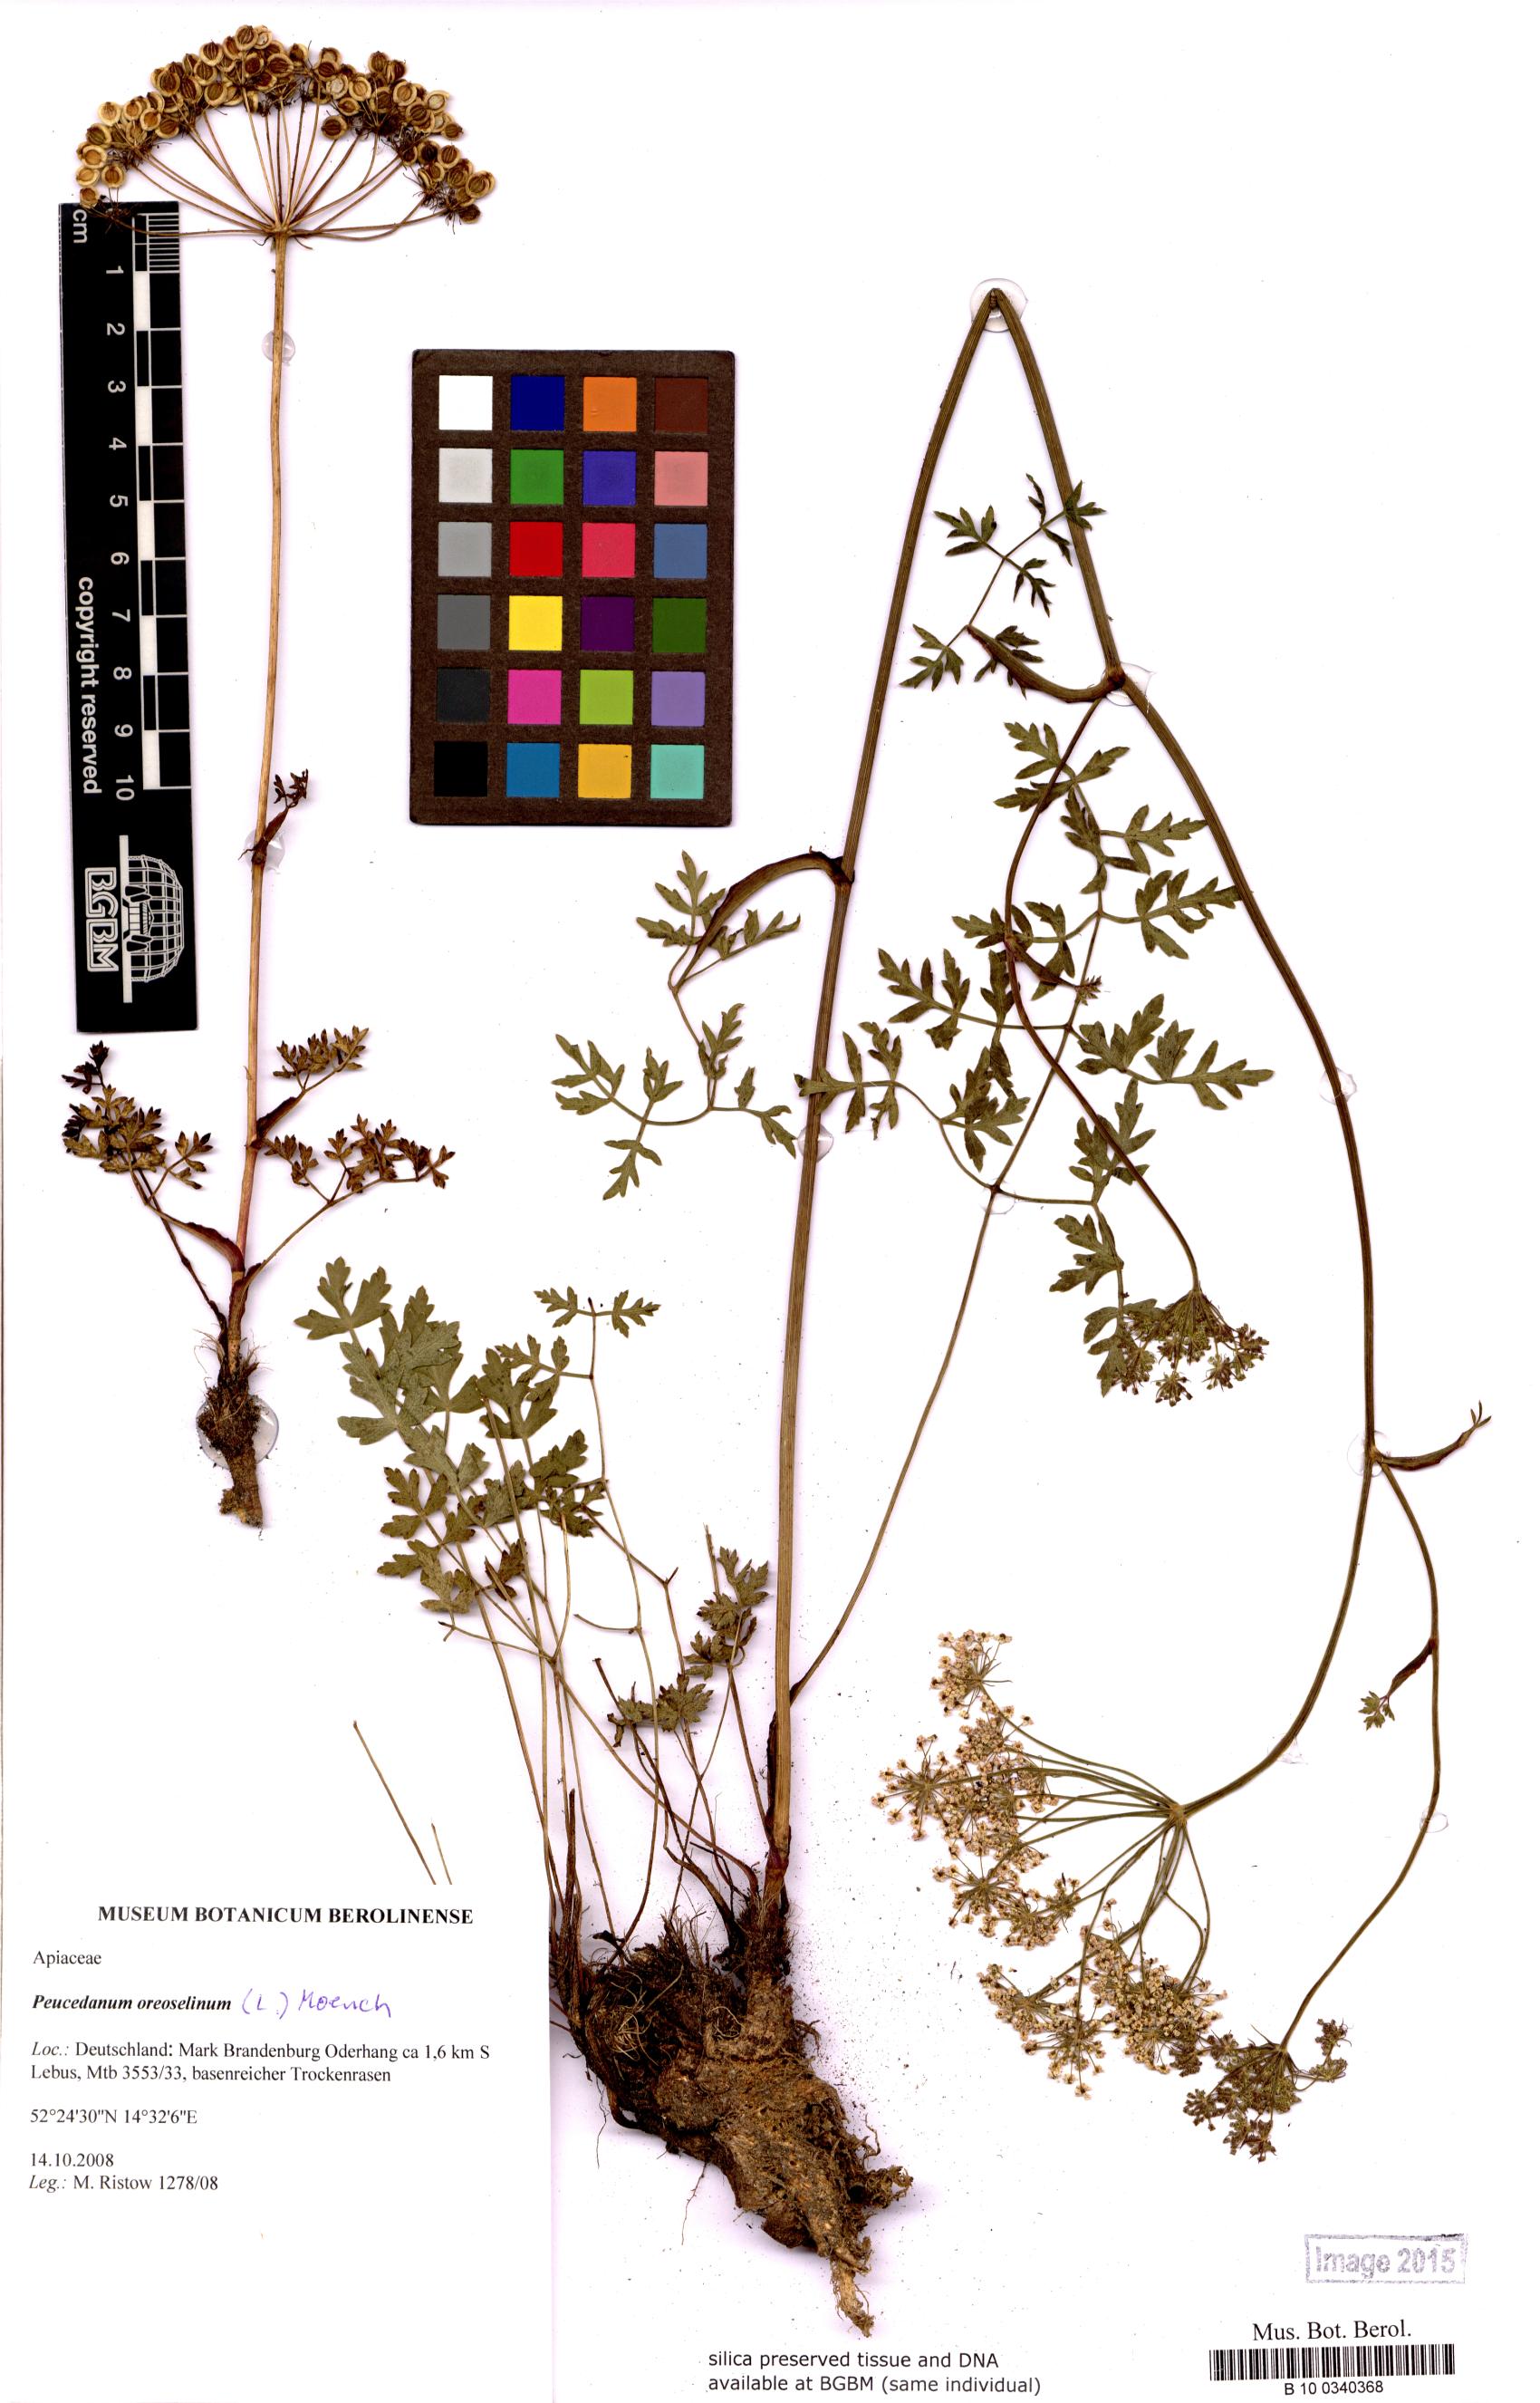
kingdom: Plantae
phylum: Tracheophyta
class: Magnoliopsida
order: Apiales
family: Apiaceae
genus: Oreoselinum
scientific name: Oreoselinum nigrum
